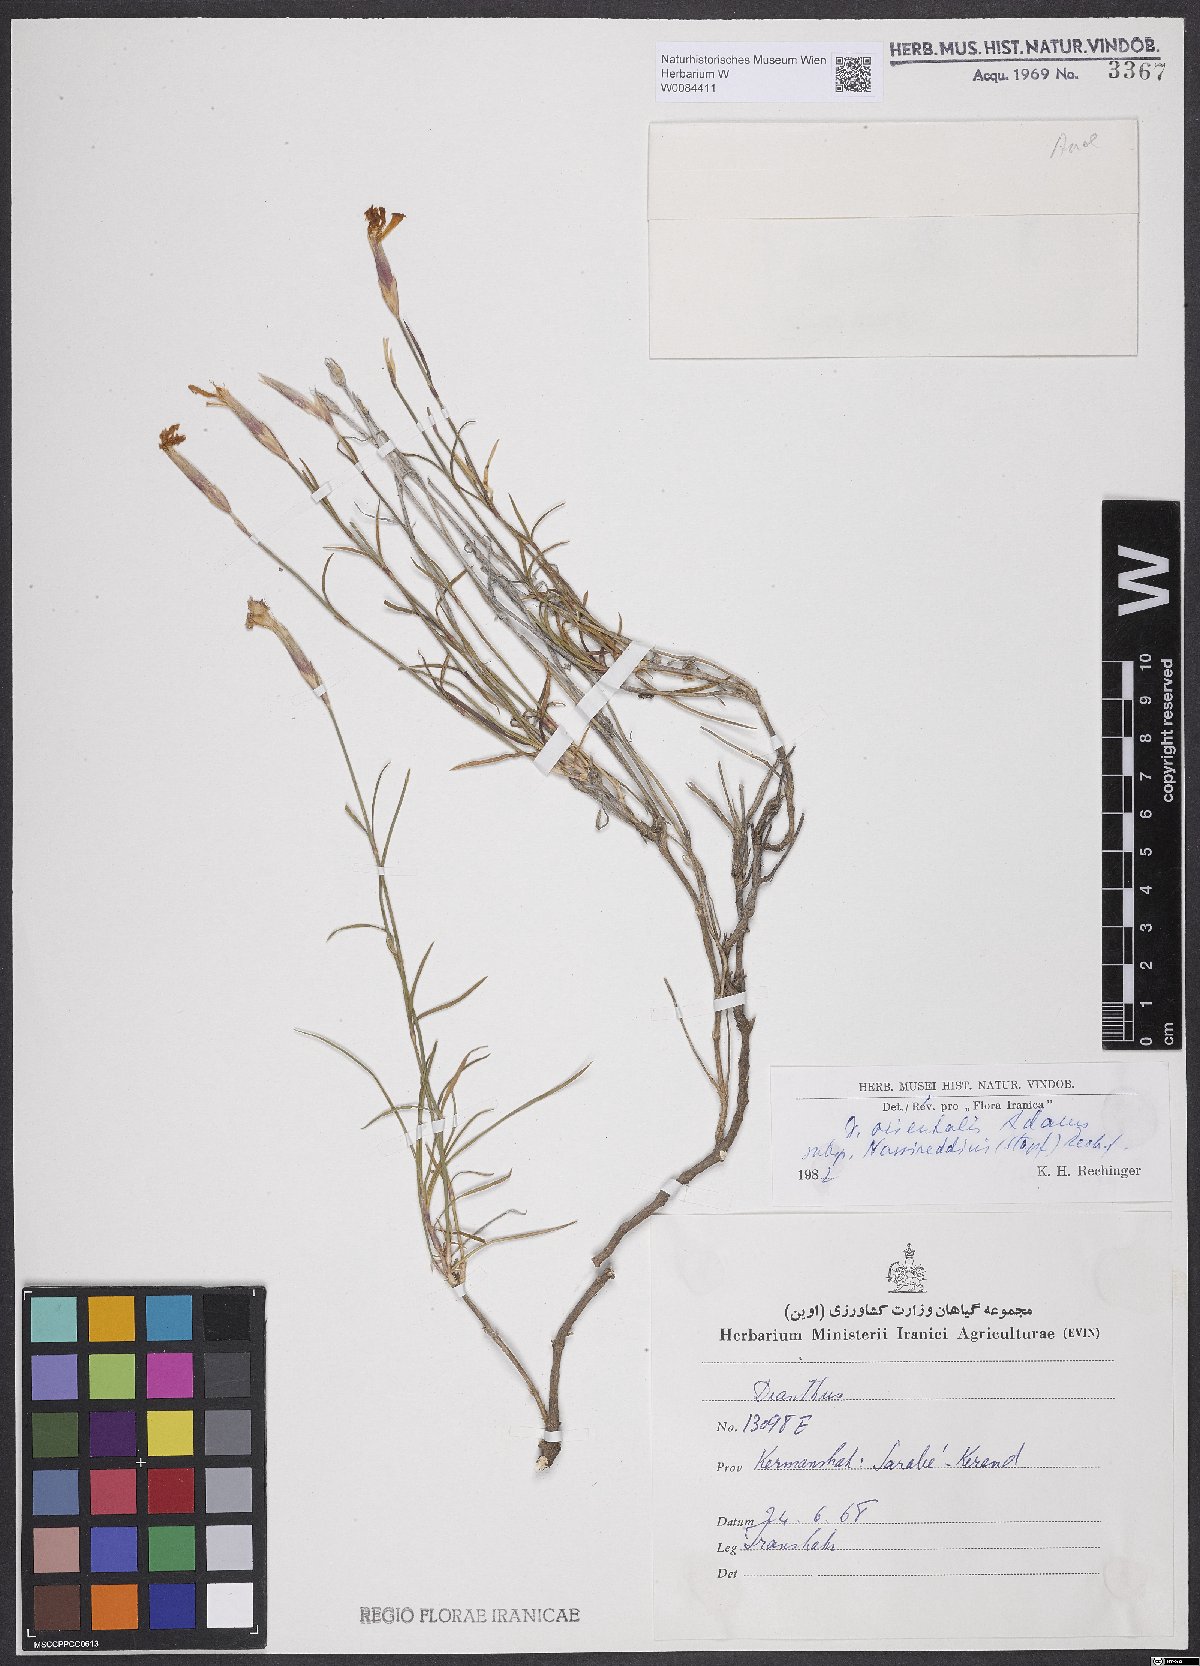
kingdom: Plantae
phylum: Tracheophyta
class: Magnoliopsida
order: Caryophyllales
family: Caryophyllaceae
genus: Dianthus
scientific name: Dianthus orientalis
